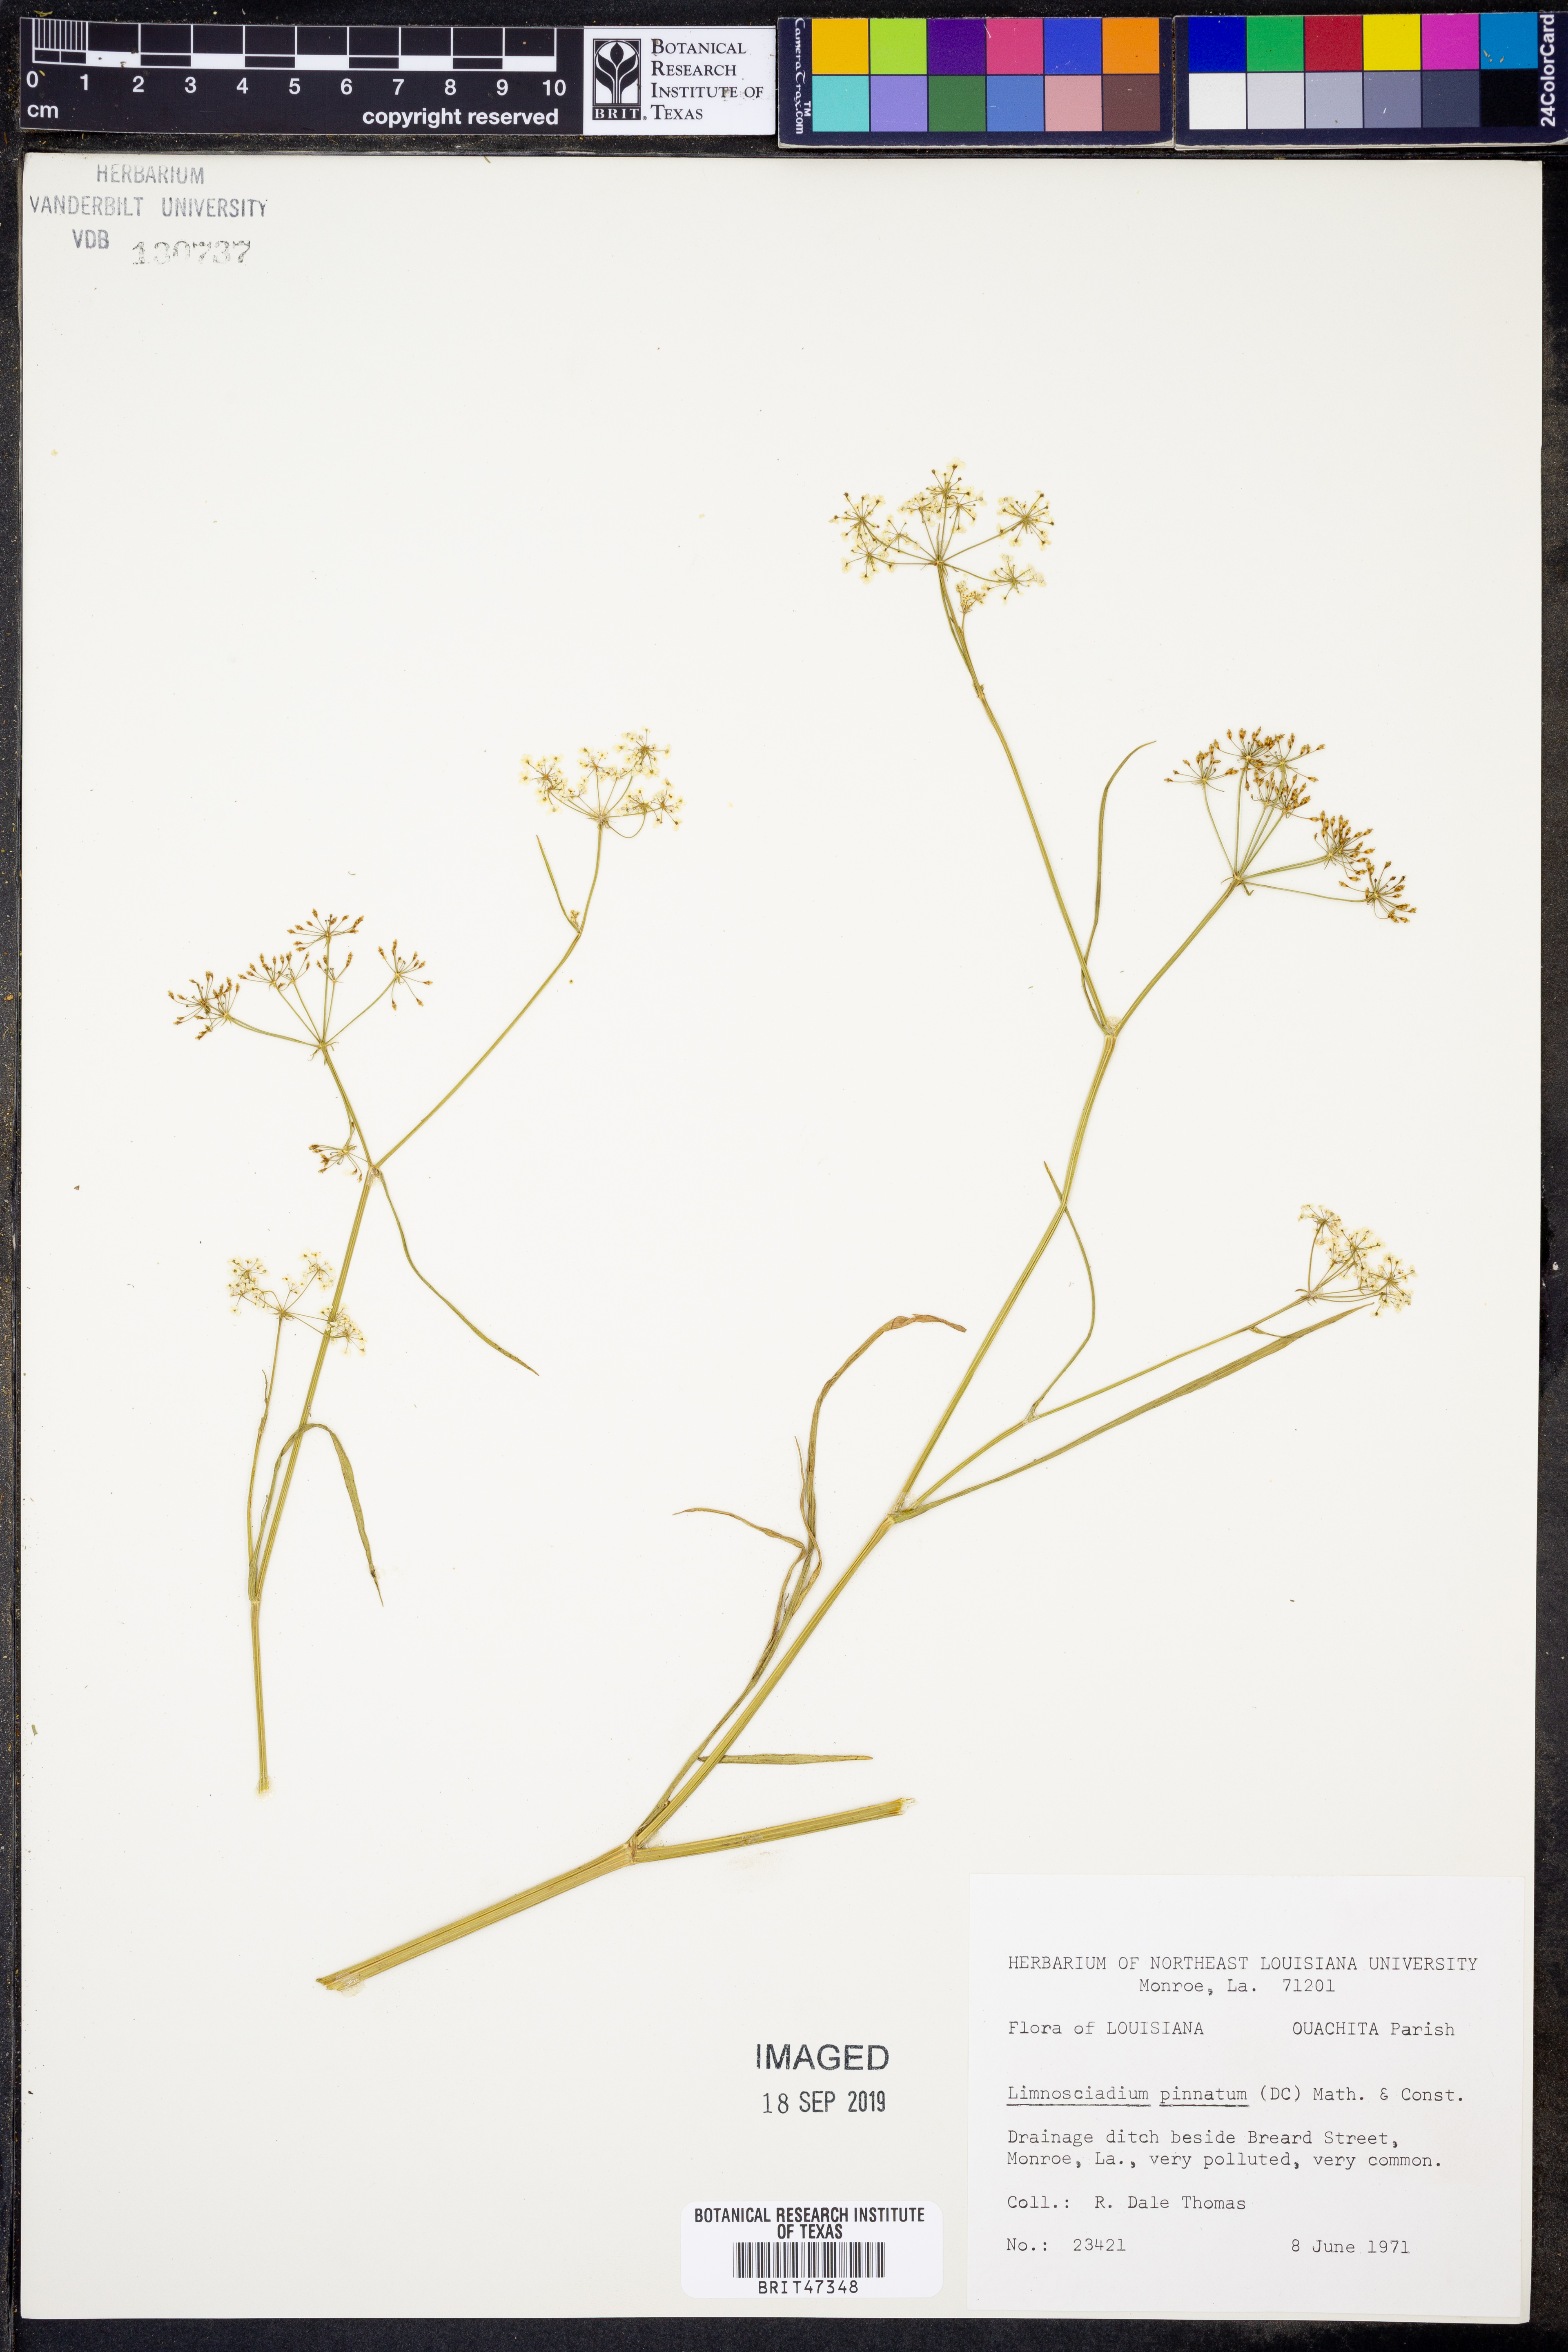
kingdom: Plantae
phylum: Tracheophyta
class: Magnoliopsida
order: Apiales
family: Apiaceae
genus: Limnosciadium
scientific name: Limnosciadium pinnatum
